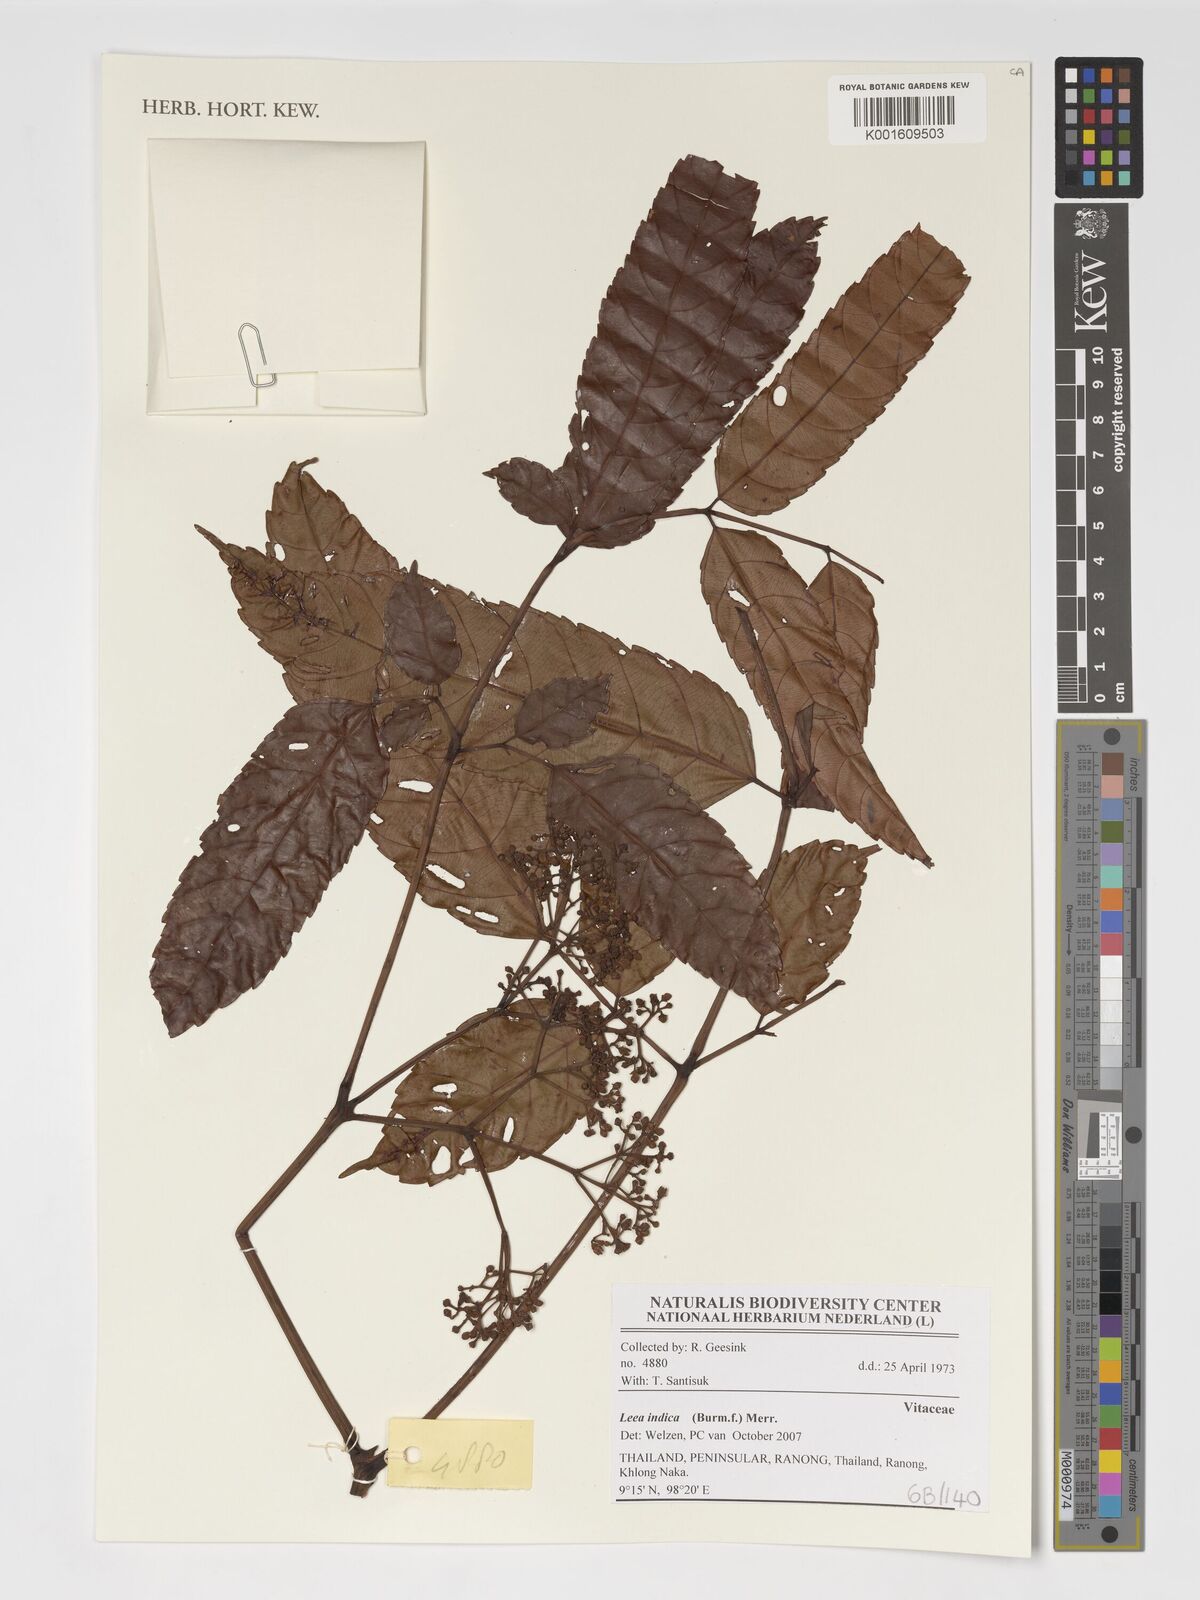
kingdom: Plantae
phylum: Tracheophyta
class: Magnoliopsida
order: Vitales
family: Vitaceae
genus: Leea
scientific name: Leea indica
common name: Bandicoot-berry
